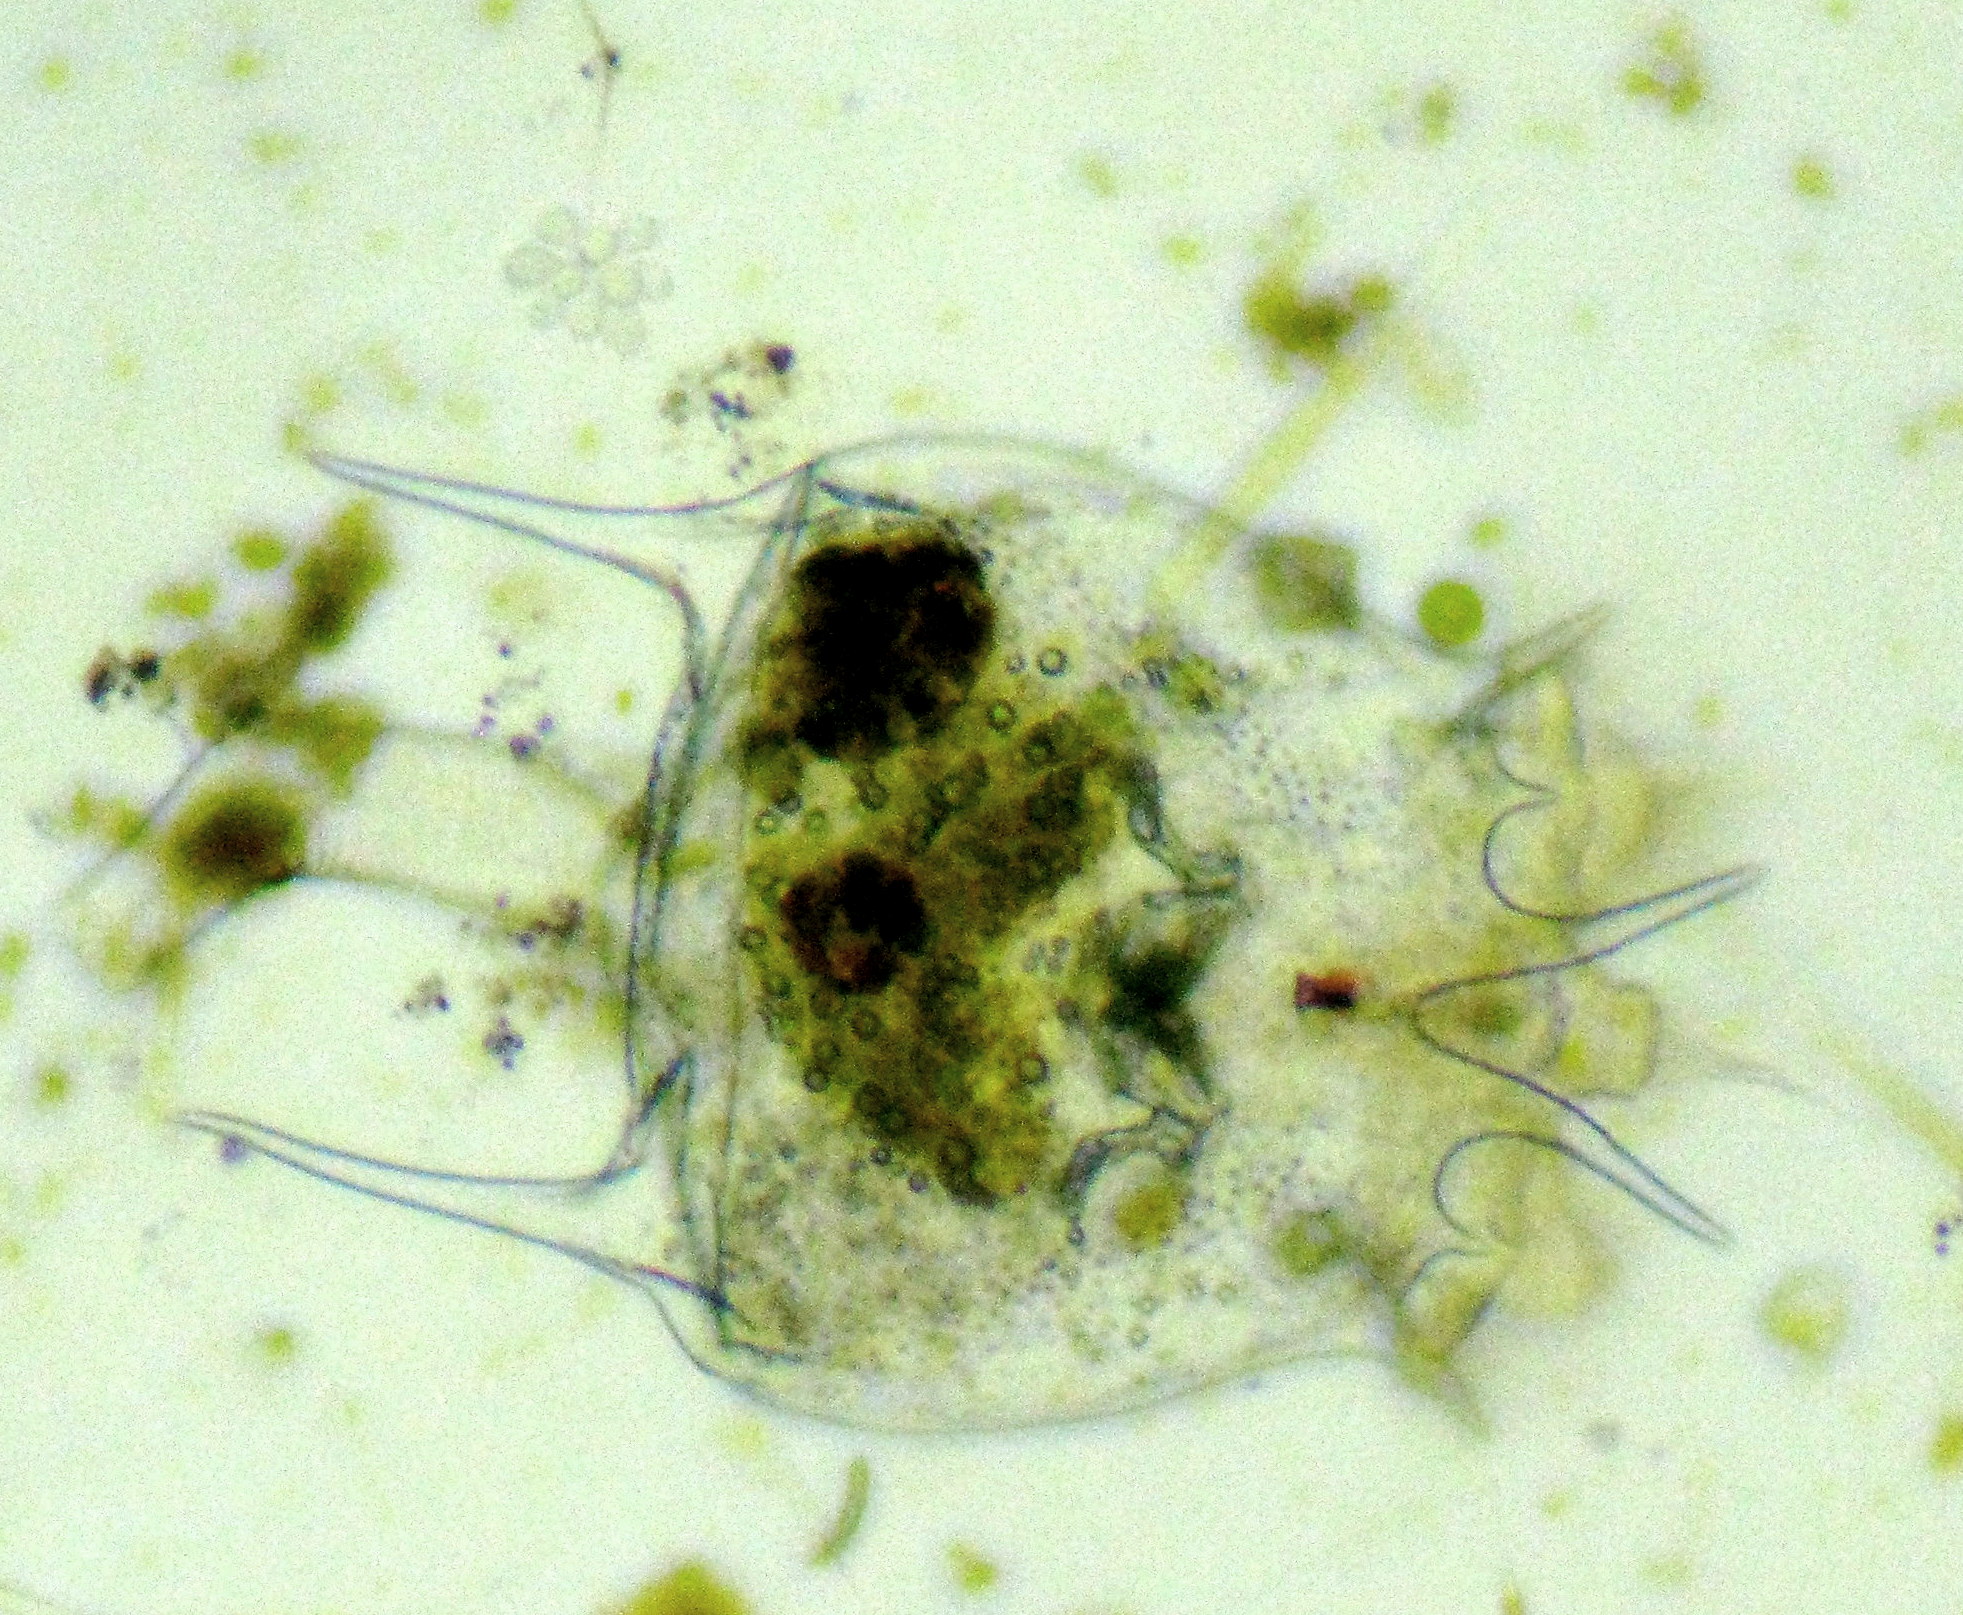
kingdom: Animalia
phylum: Rotifera
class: Eurotatoria
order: Ploima
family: Brachionidae
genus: Brachionus
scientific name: Brachionus
